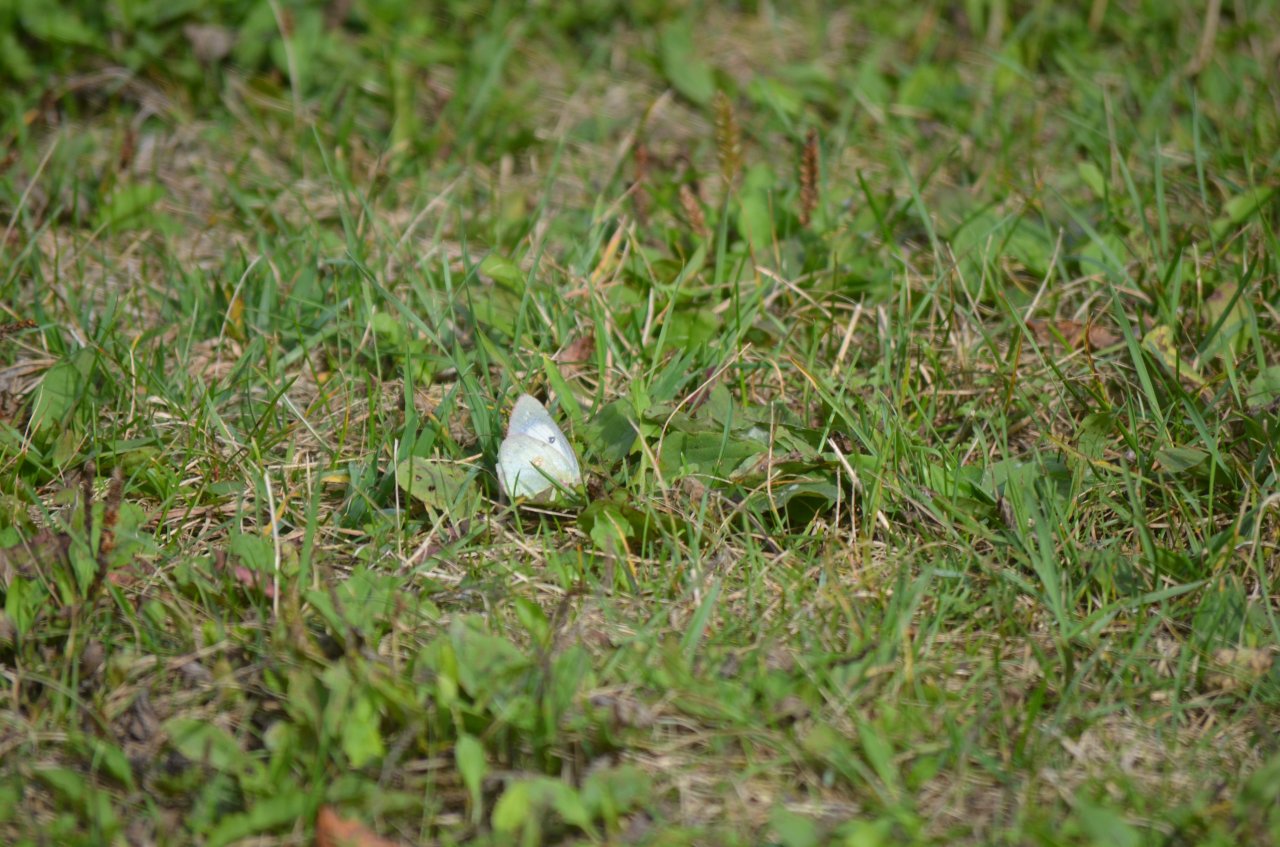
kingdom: Animalia
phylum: Arthropoda
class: Insecta
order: Lepidoptera
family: Pieridae
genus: Colias
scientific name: Colias philodice
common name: Clouded Sulphur
